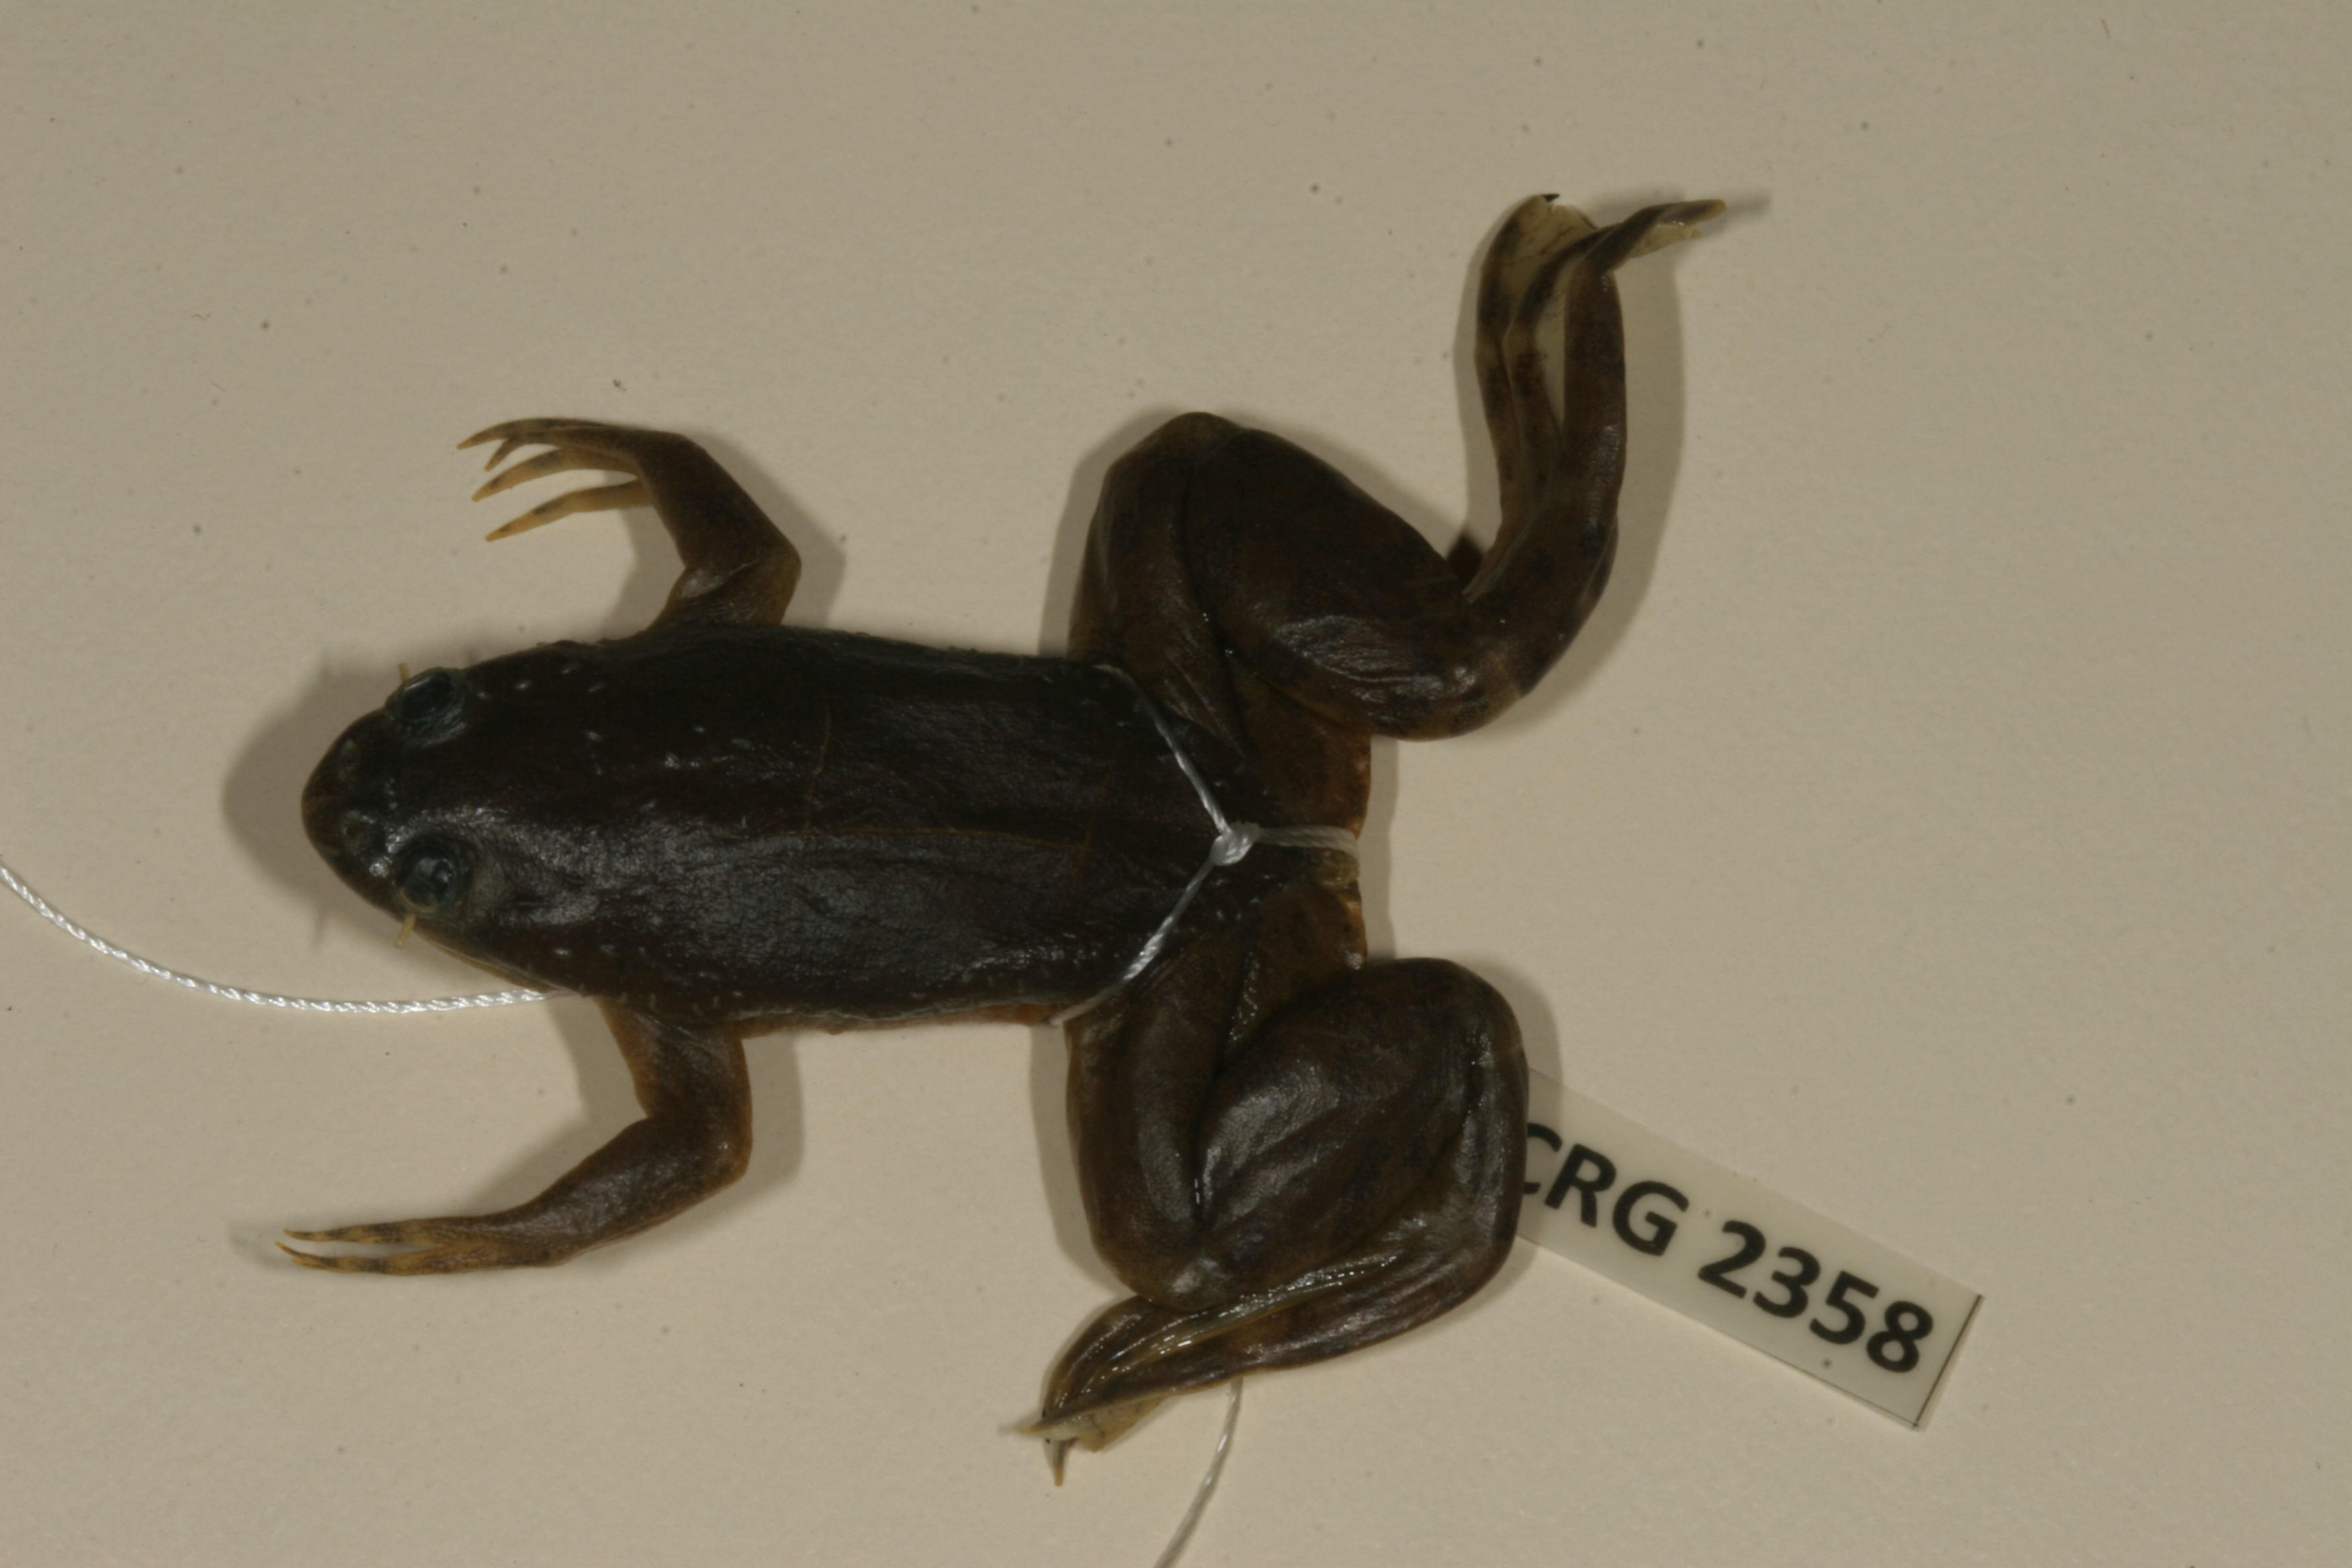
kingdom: Animalia
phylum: Chordata
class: Amphibia
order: Anura
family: Pipidae
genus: Xenopus
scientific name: Xenopus muelleri
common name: Muller's clawed frog
